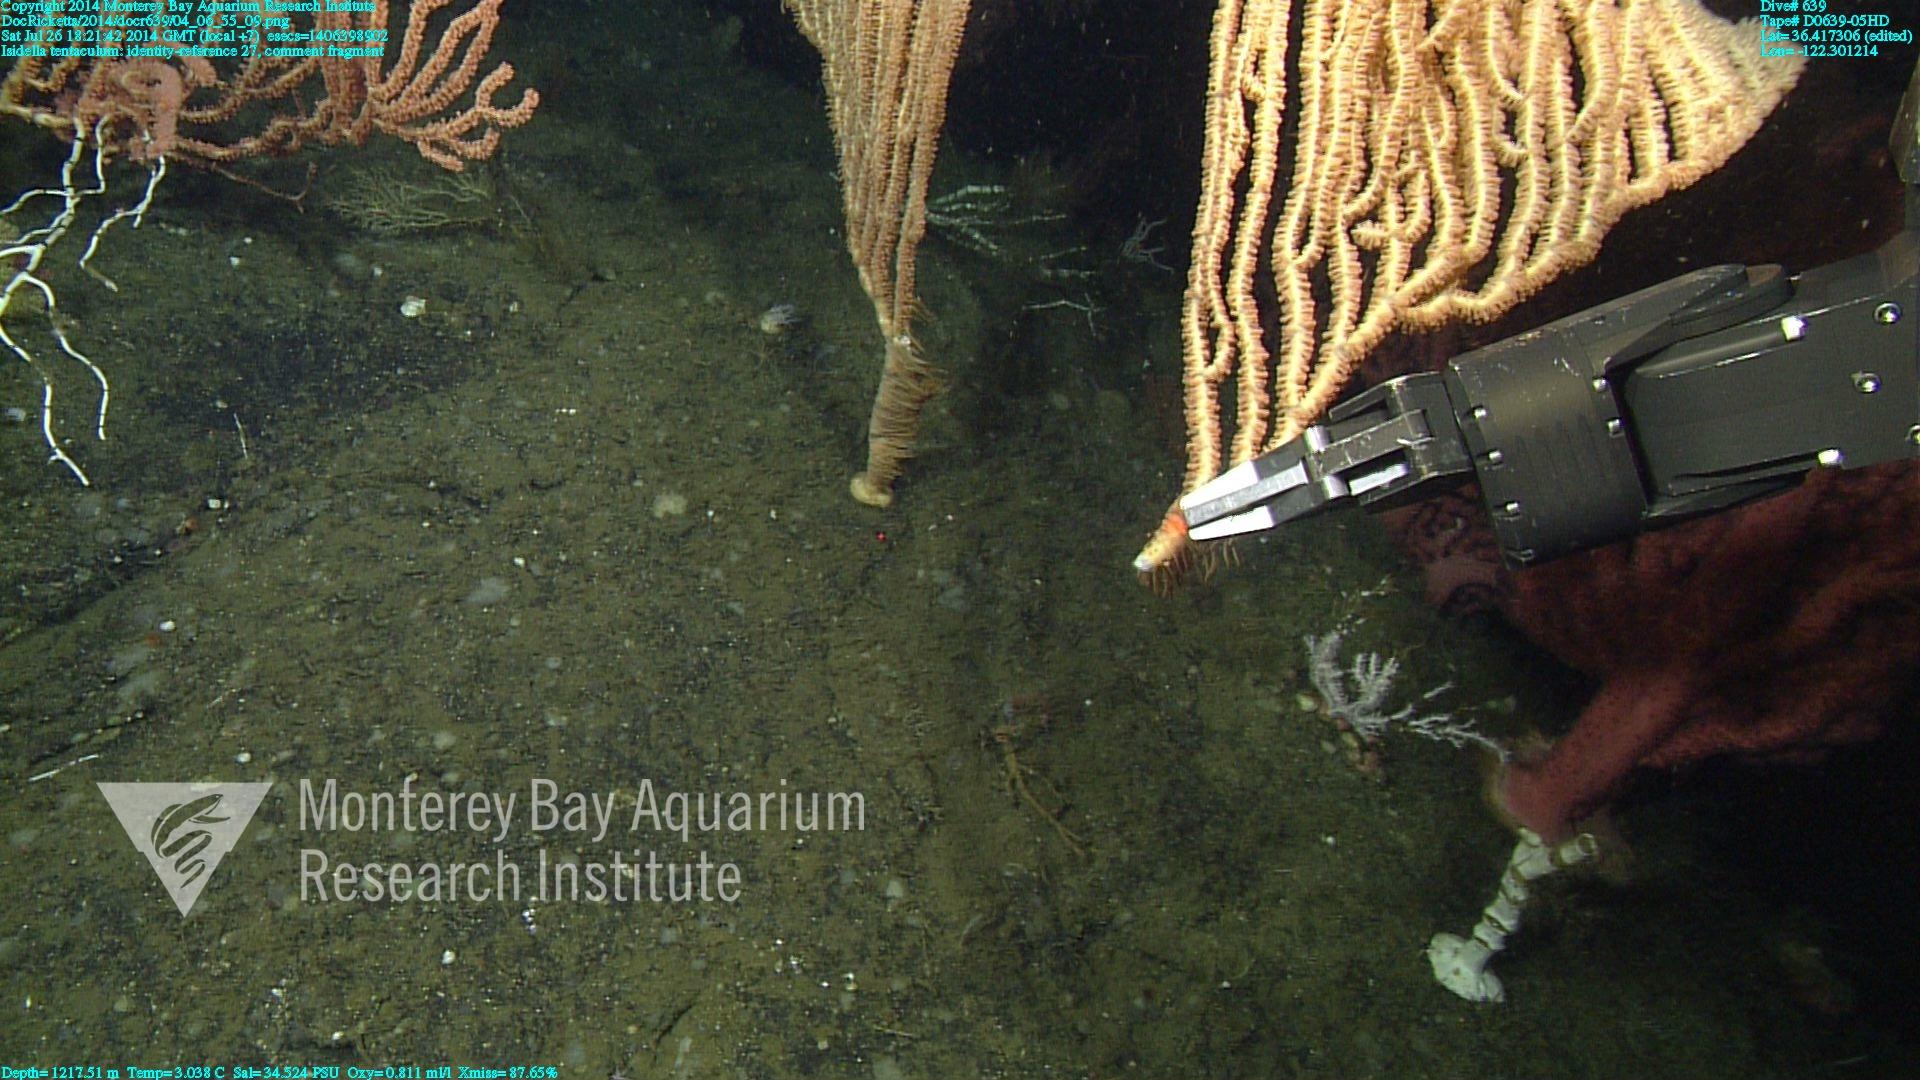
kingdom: Animalia
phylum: Cnidaria
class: Anthozoa
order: Scleralcyonacea
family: Keratoisididae
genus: Isidella
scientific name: Isidella tentaculum
